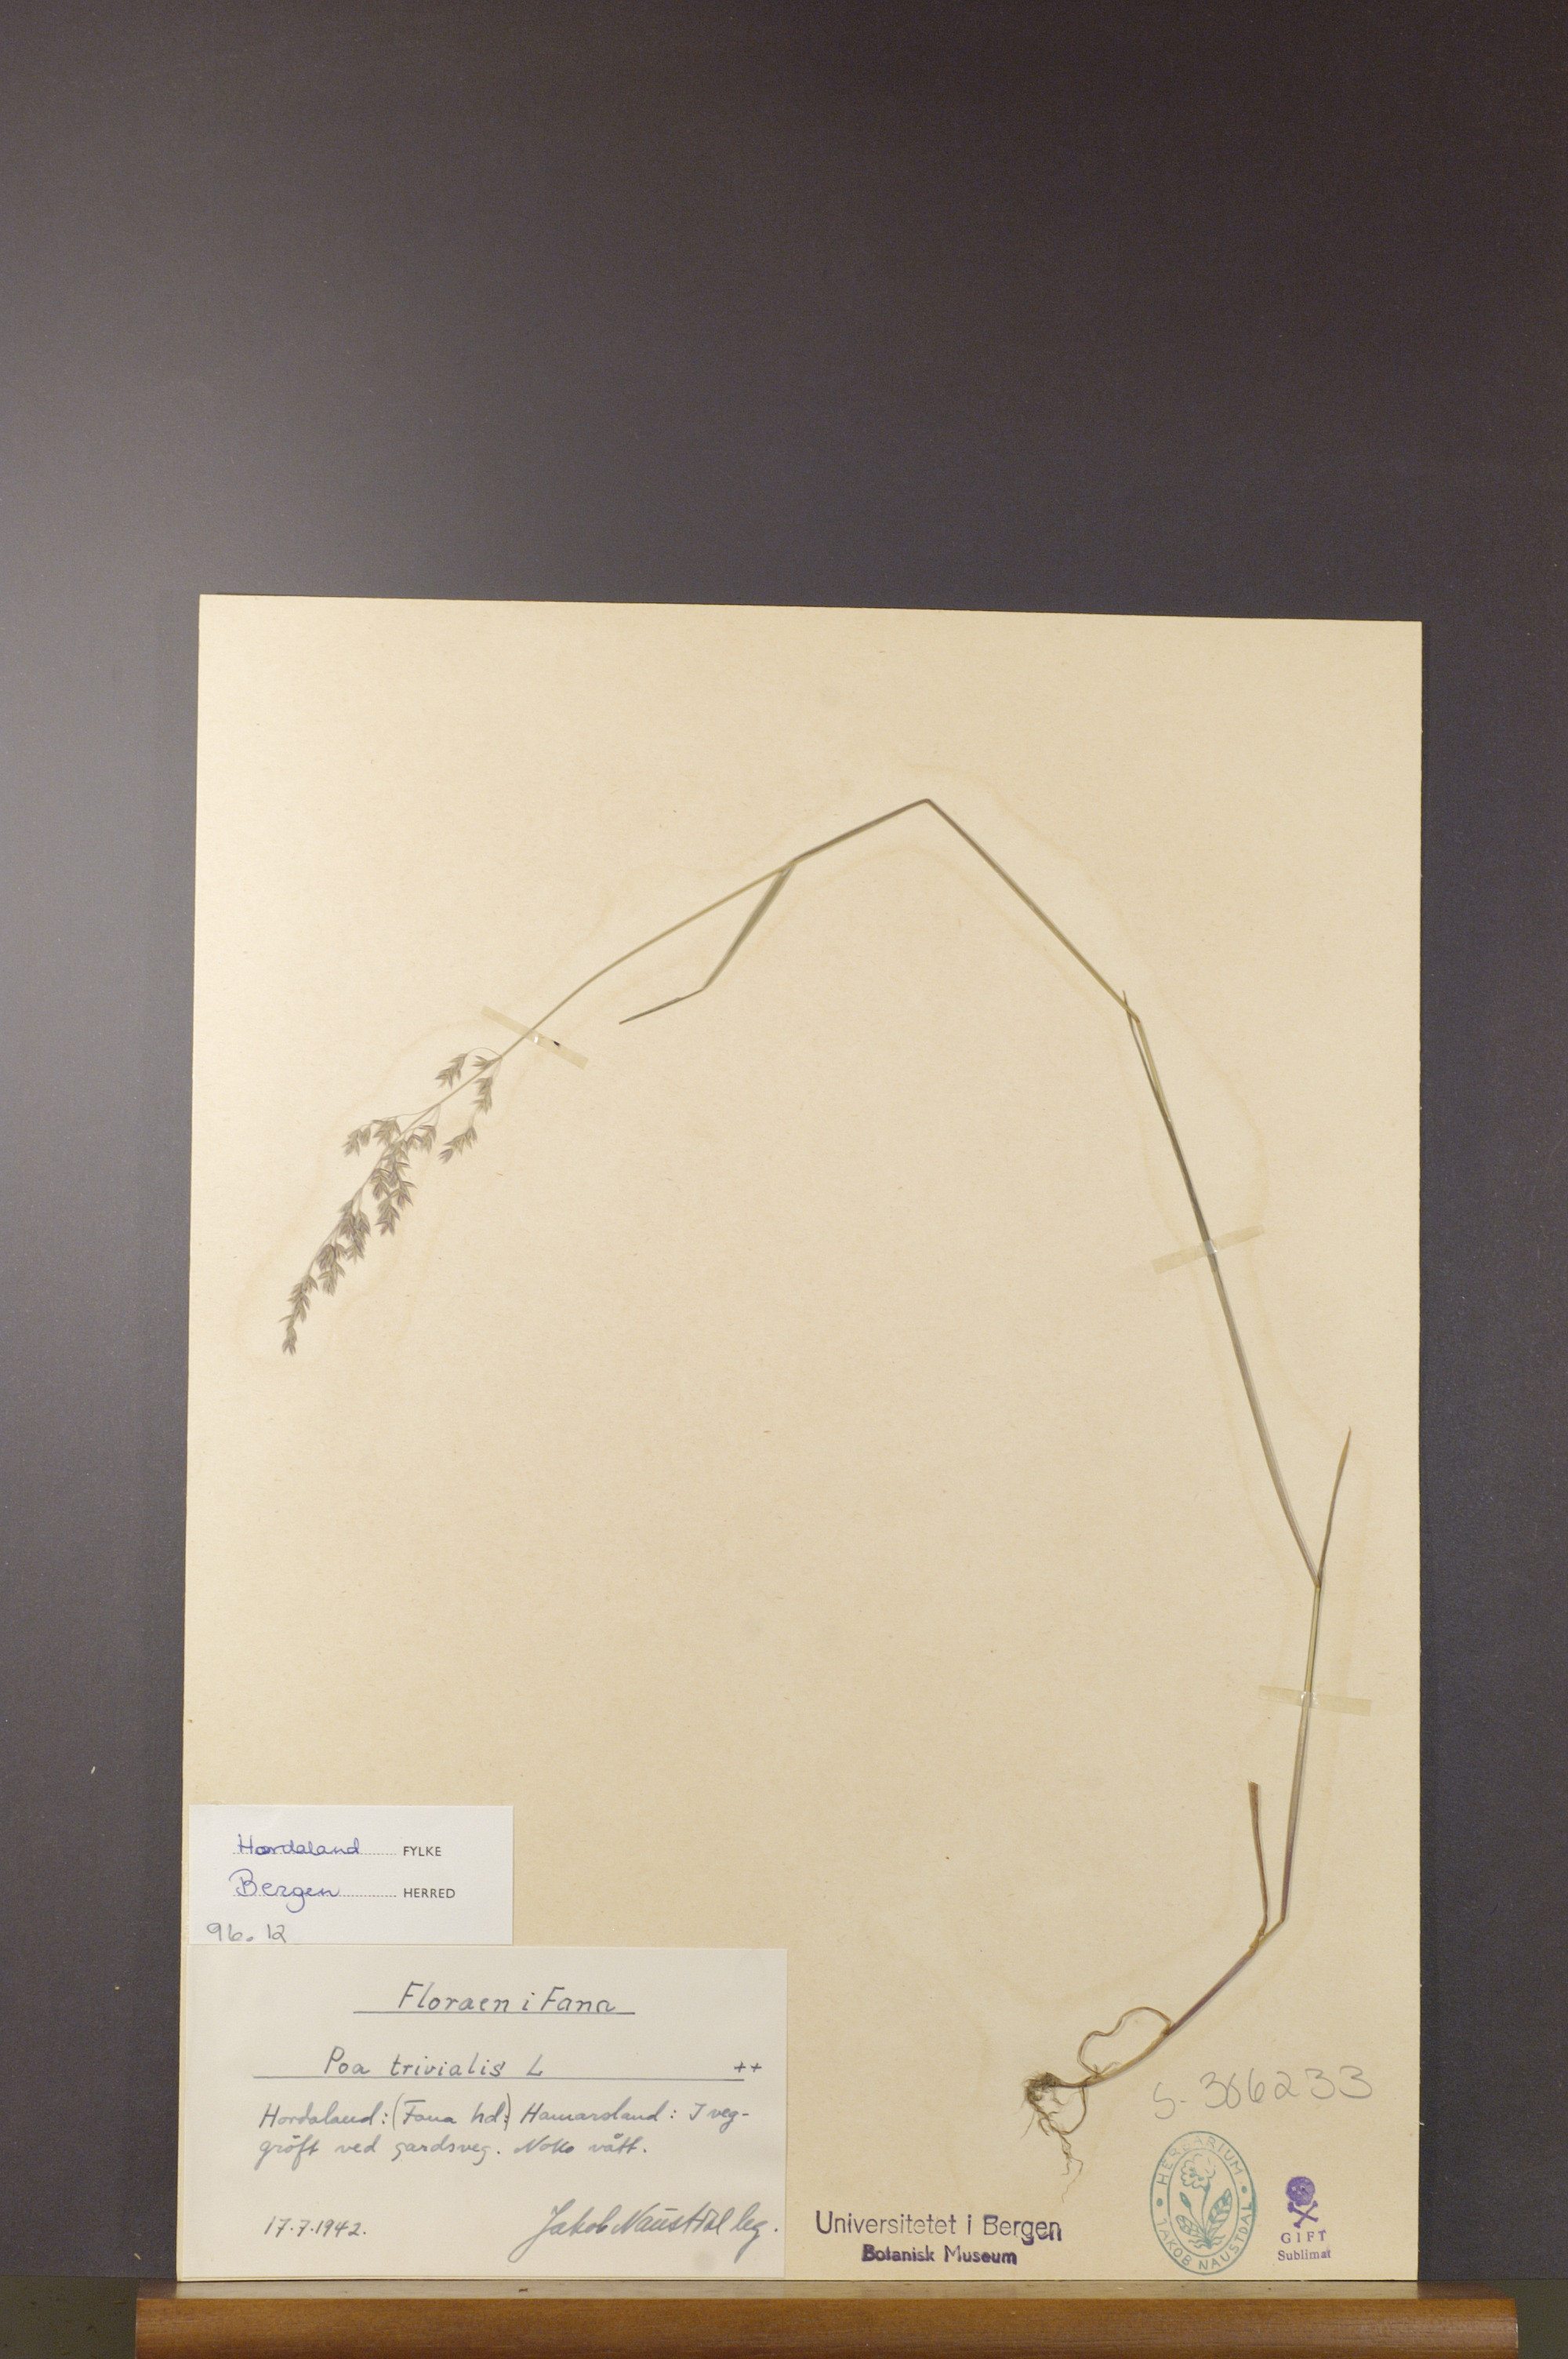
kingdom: Plantae
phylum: Tracheophyta
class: Liliopsida
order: Poales
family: Poaceae
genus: Poa
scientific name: Poa trivialis
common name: Rough bluegrass
